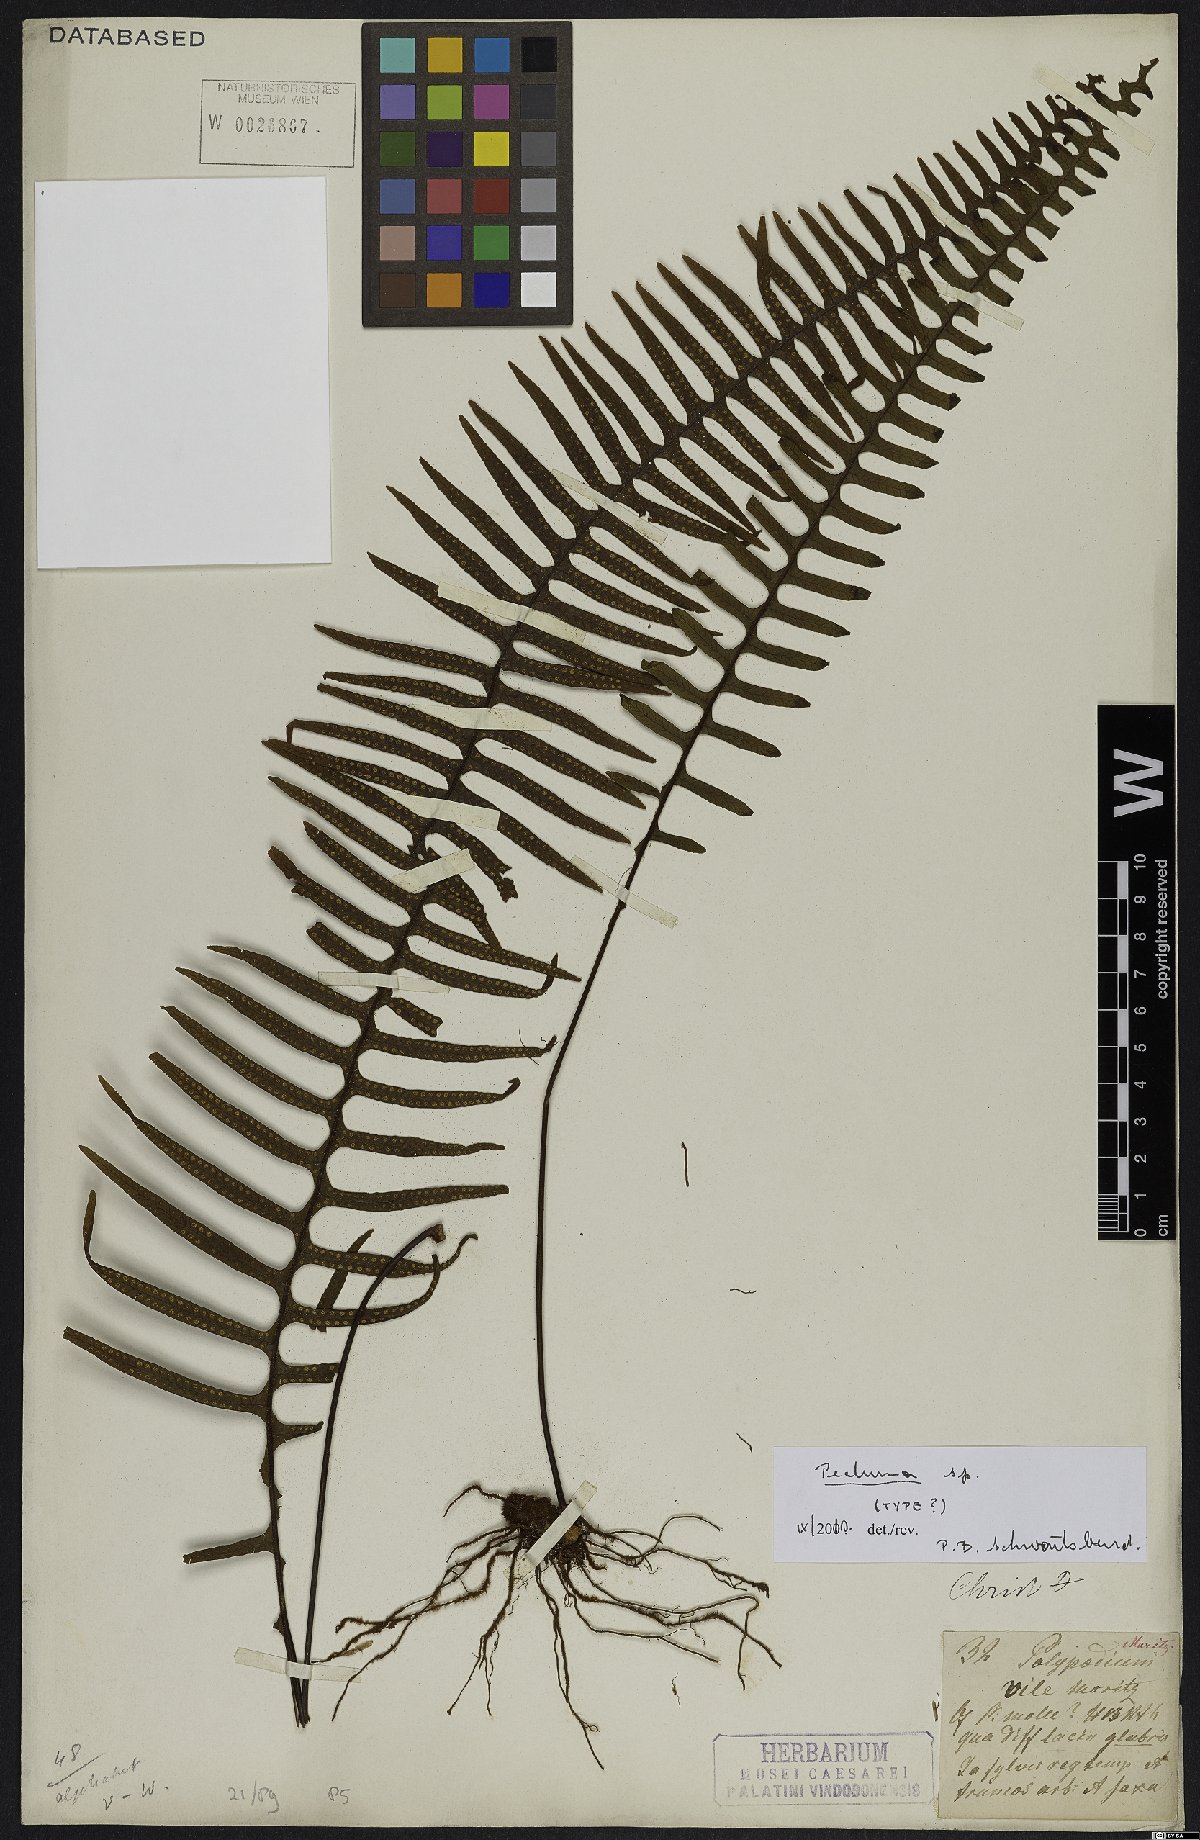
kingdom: Plantae
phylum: Tracheophyta
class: Polypodiopsida
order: Polypodiales
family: Polypodiaceae
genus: Pecluma
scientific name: Pecluma
